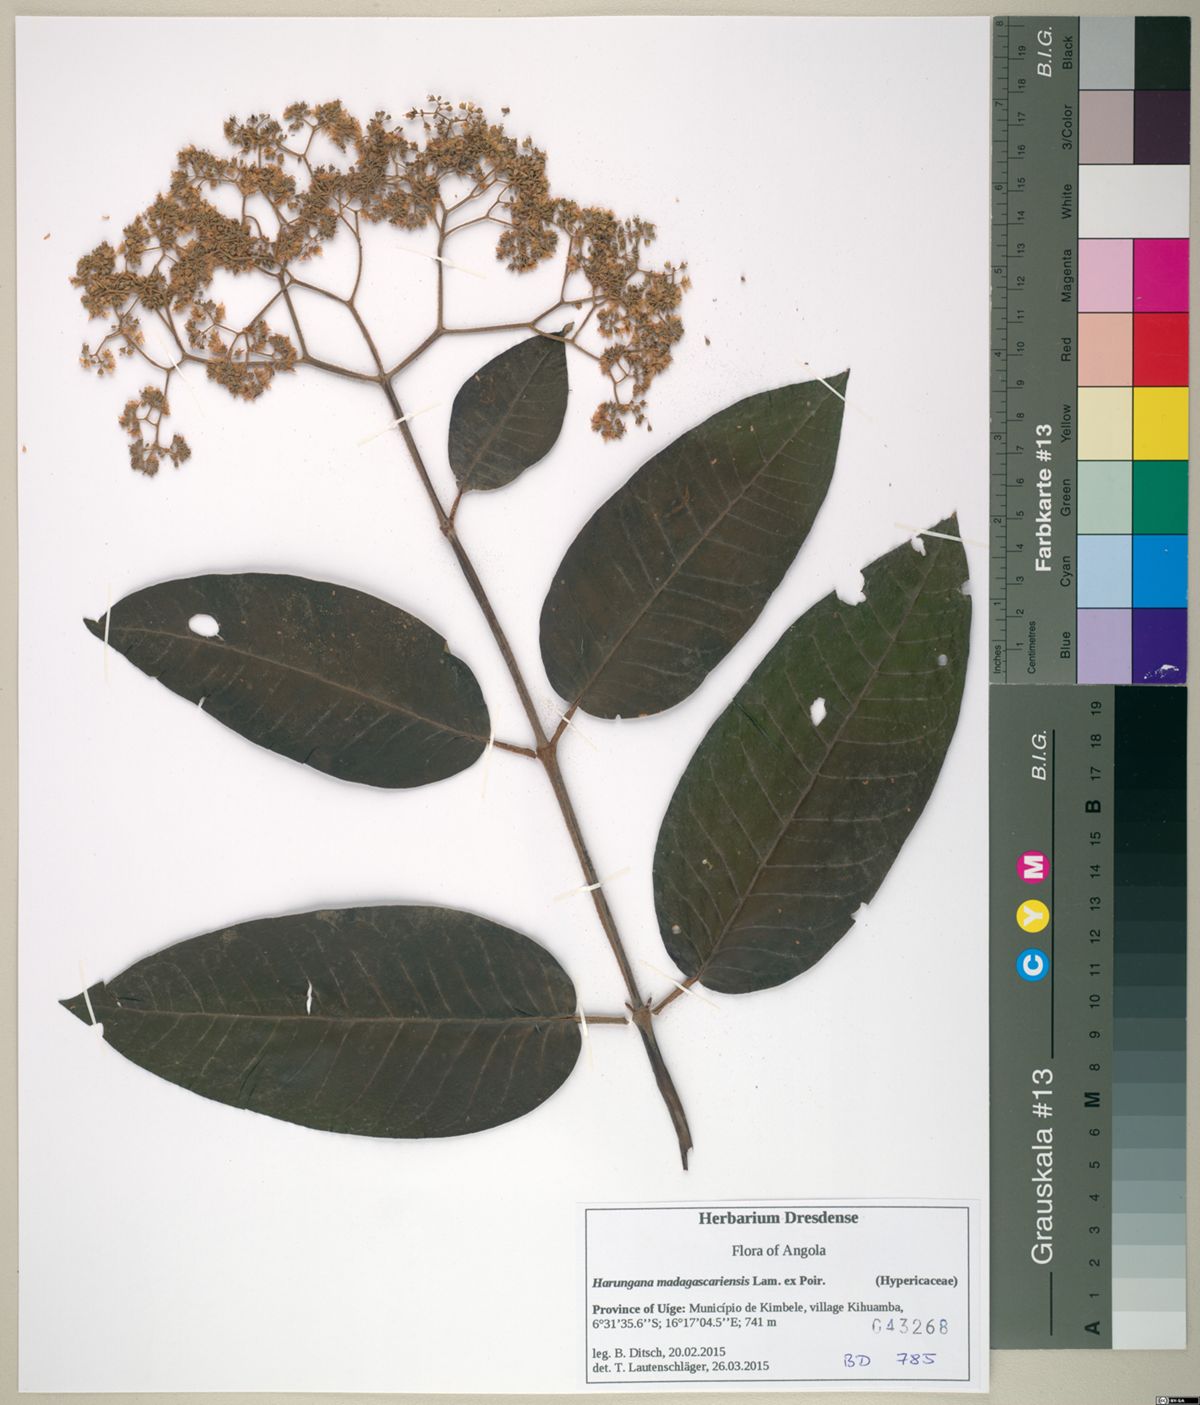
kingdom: Plantae
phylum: Tracheophyta
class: Magnoliopsida
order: Malpighiales
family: Hypericaceae
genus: Harungana
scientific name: Harungana madagascariensis
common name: Orange milktree
